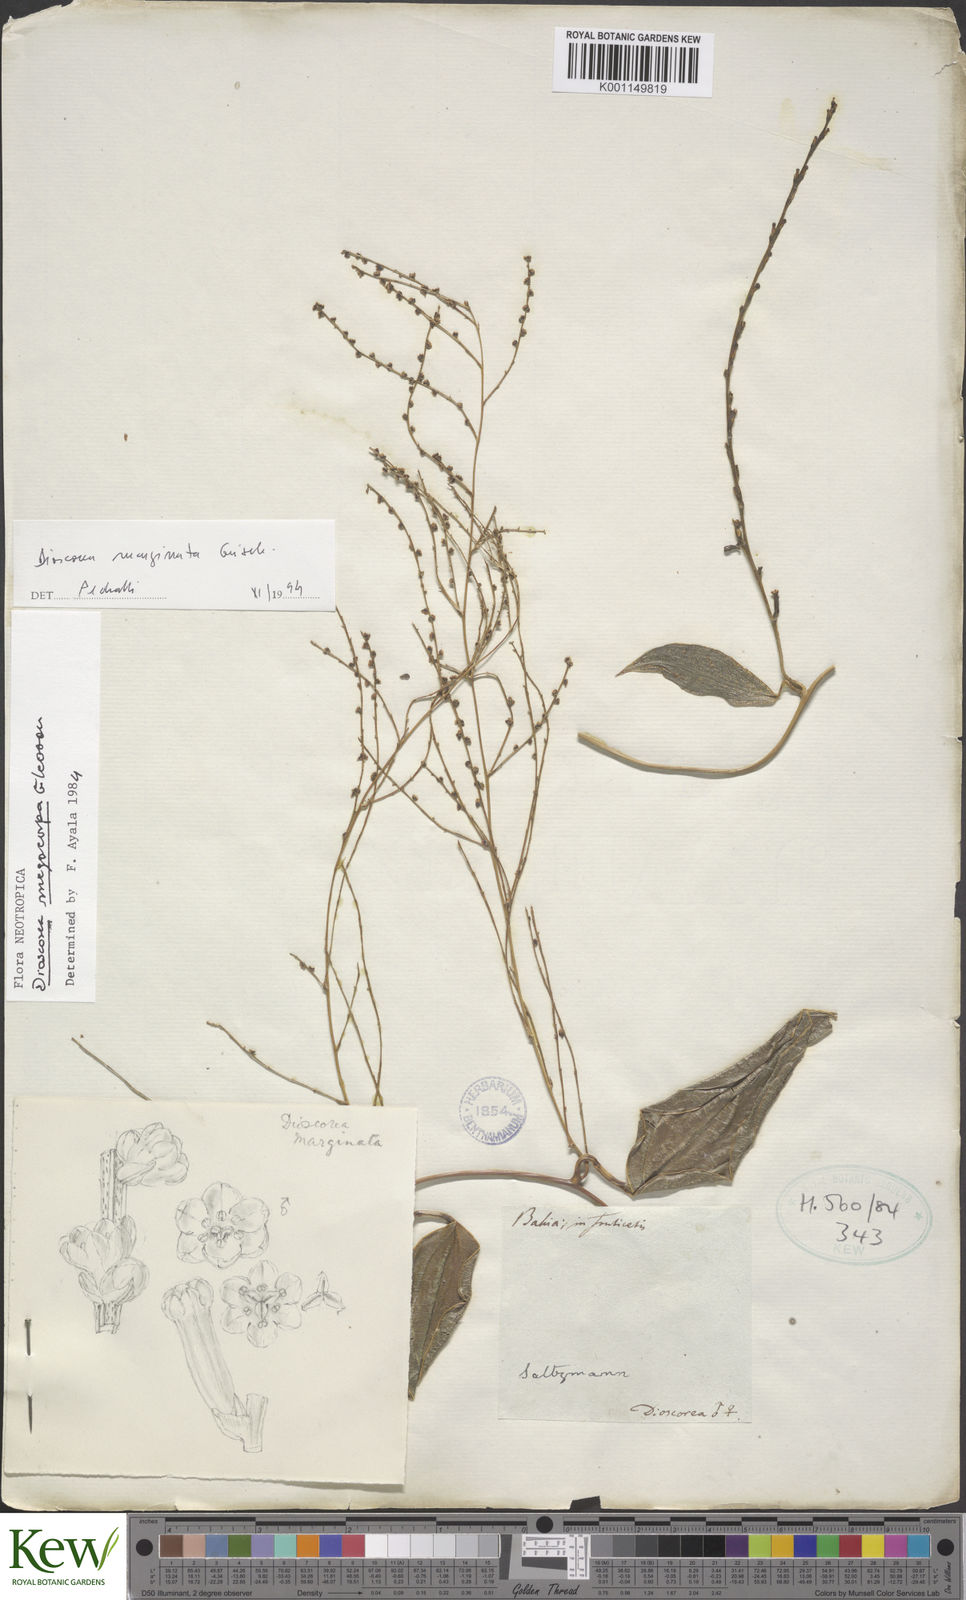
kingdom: Plantae
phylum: Tracheophyta
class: Liliopsida
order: Dioscoreales
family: Dioscoreaceae
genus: Dioscorea
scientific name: Dioscorea marginata
